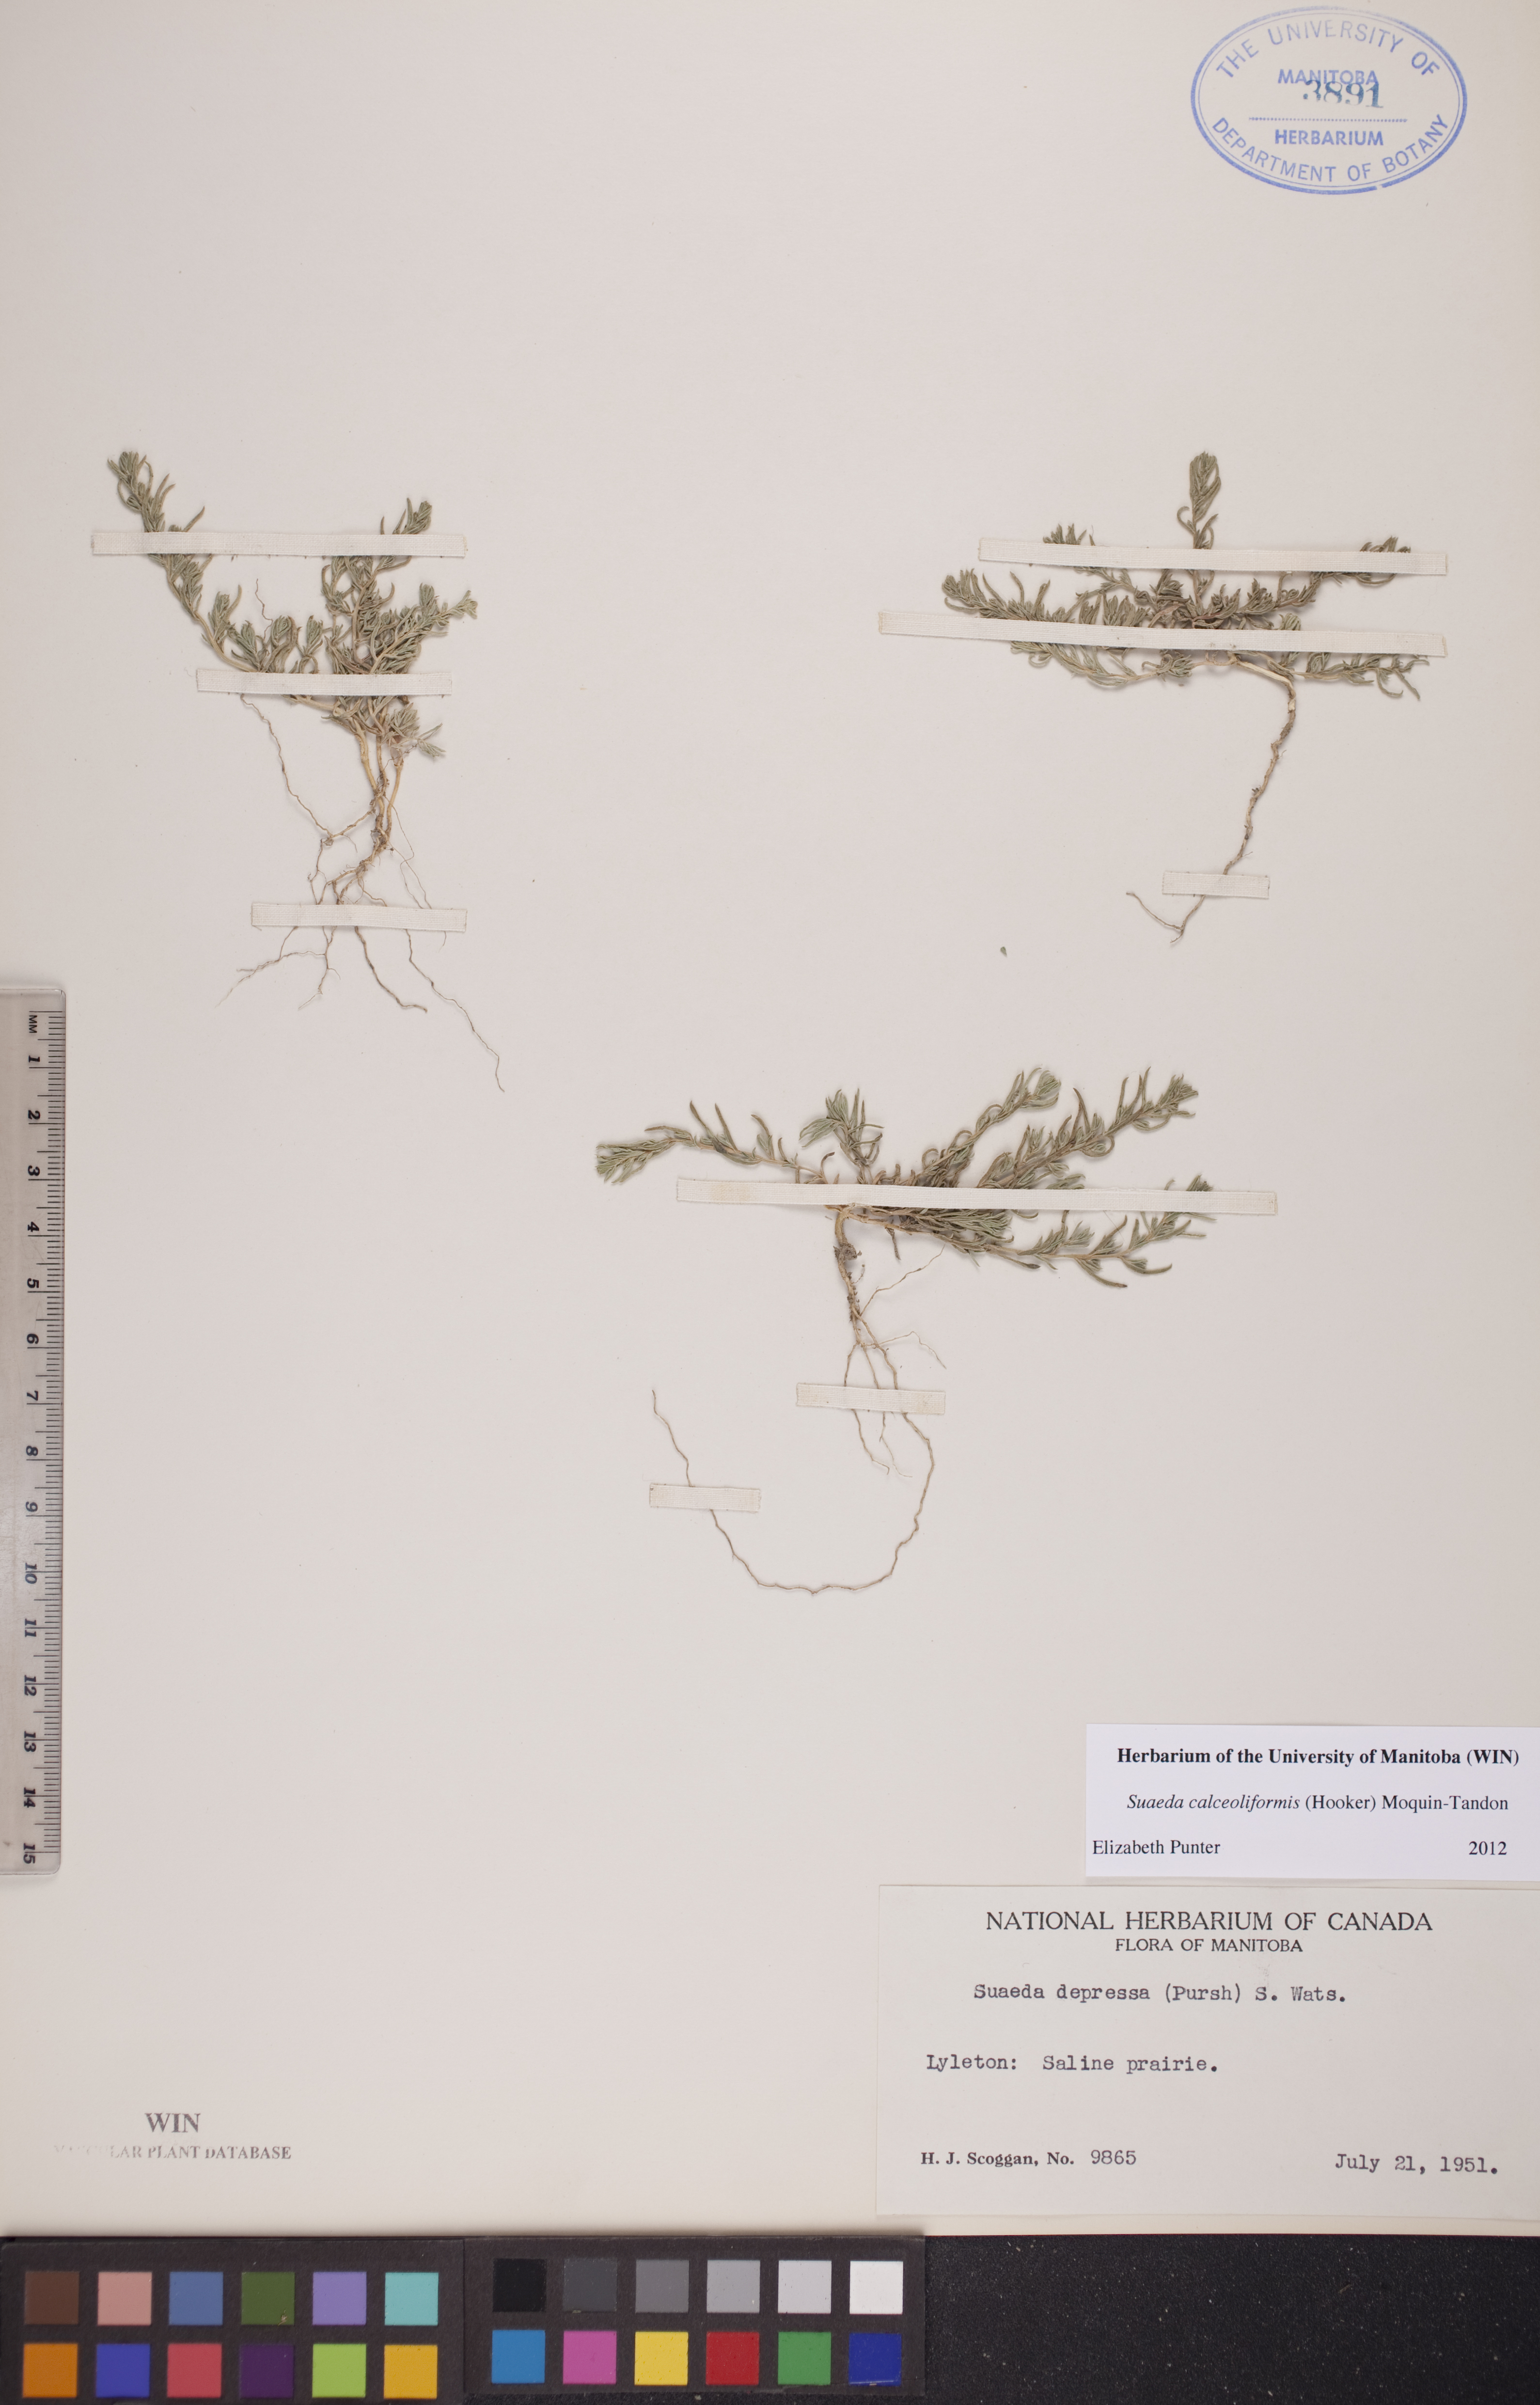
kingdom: Plantae
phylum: Tracheophyta
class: Magnoliopsida
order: Caryophyllales
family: Amaranthaceae
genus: Suaeda
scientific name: Suaeda calceoliformis
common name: Pursh's seepweed
